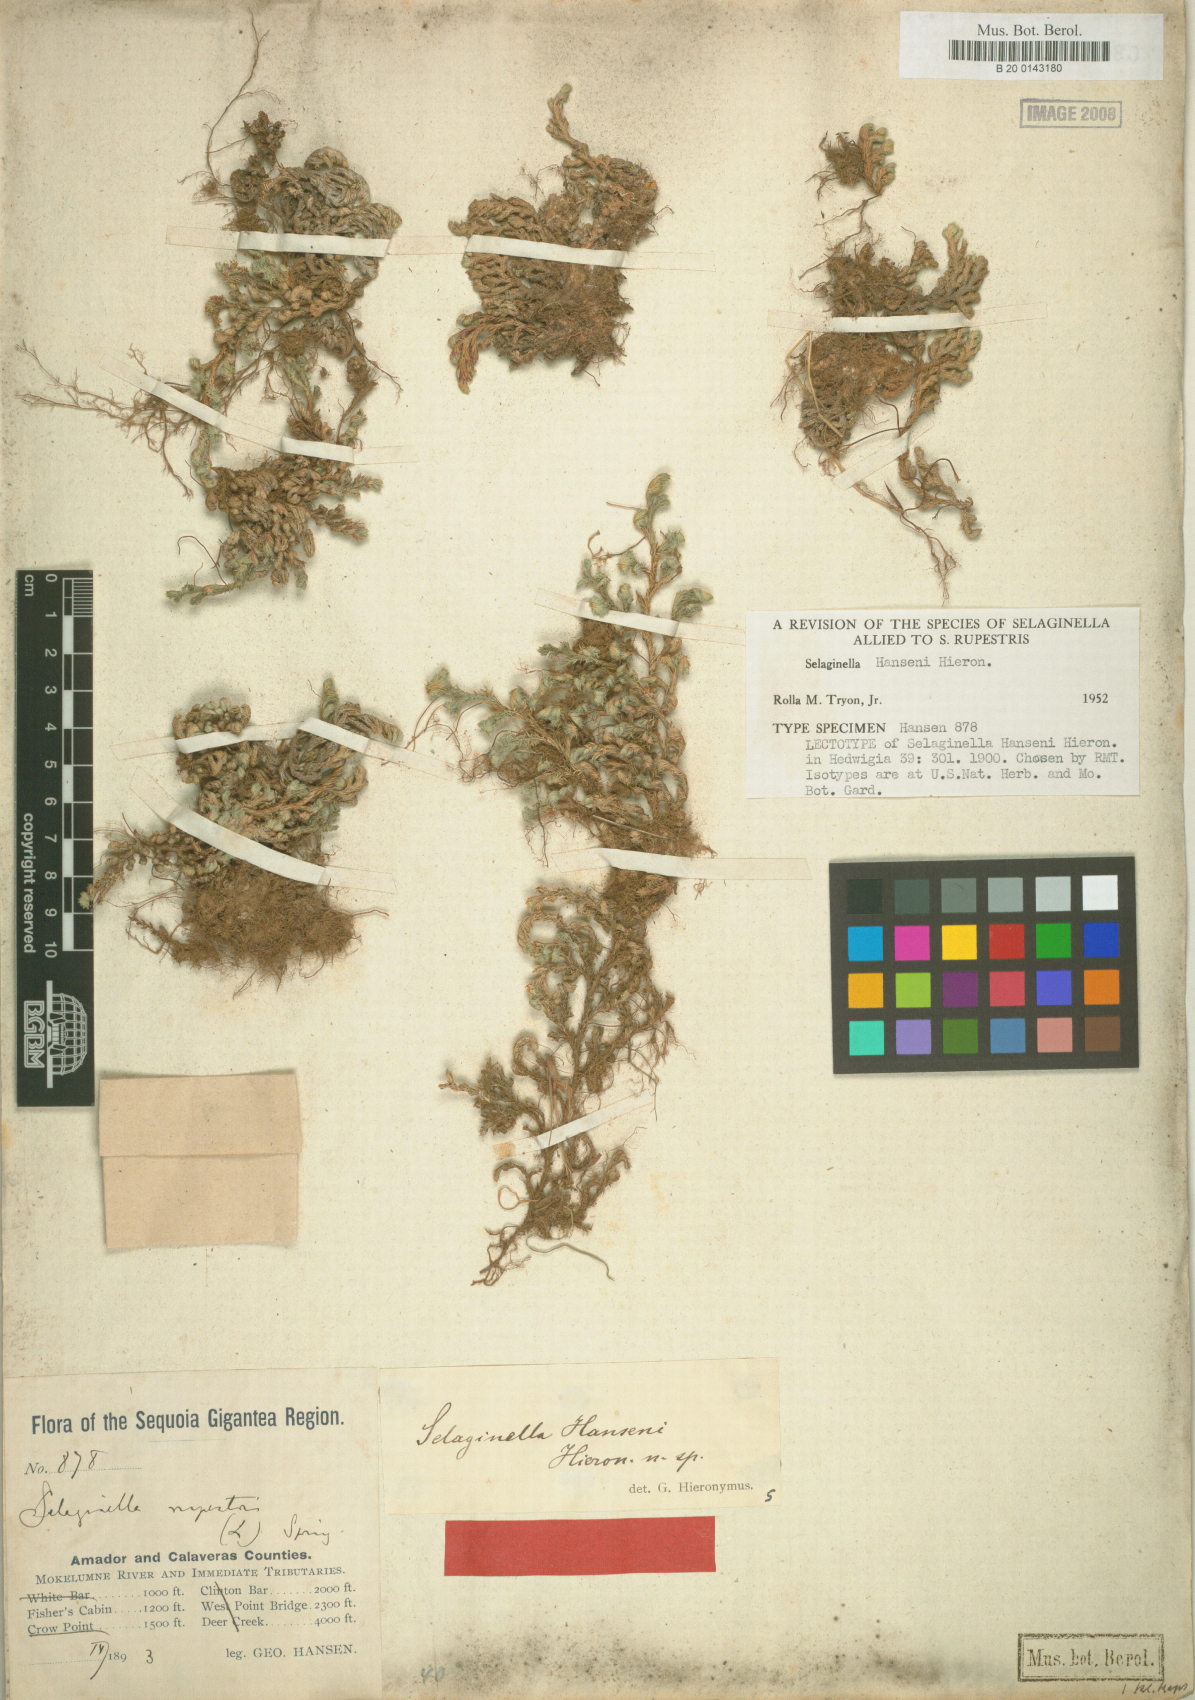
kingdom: Plantae
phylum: Tracheophyta
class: Lycopodiopsida
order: Selaginellales
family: Selaginellaceae
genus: Selaginella
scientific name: Selaginella hansenii
